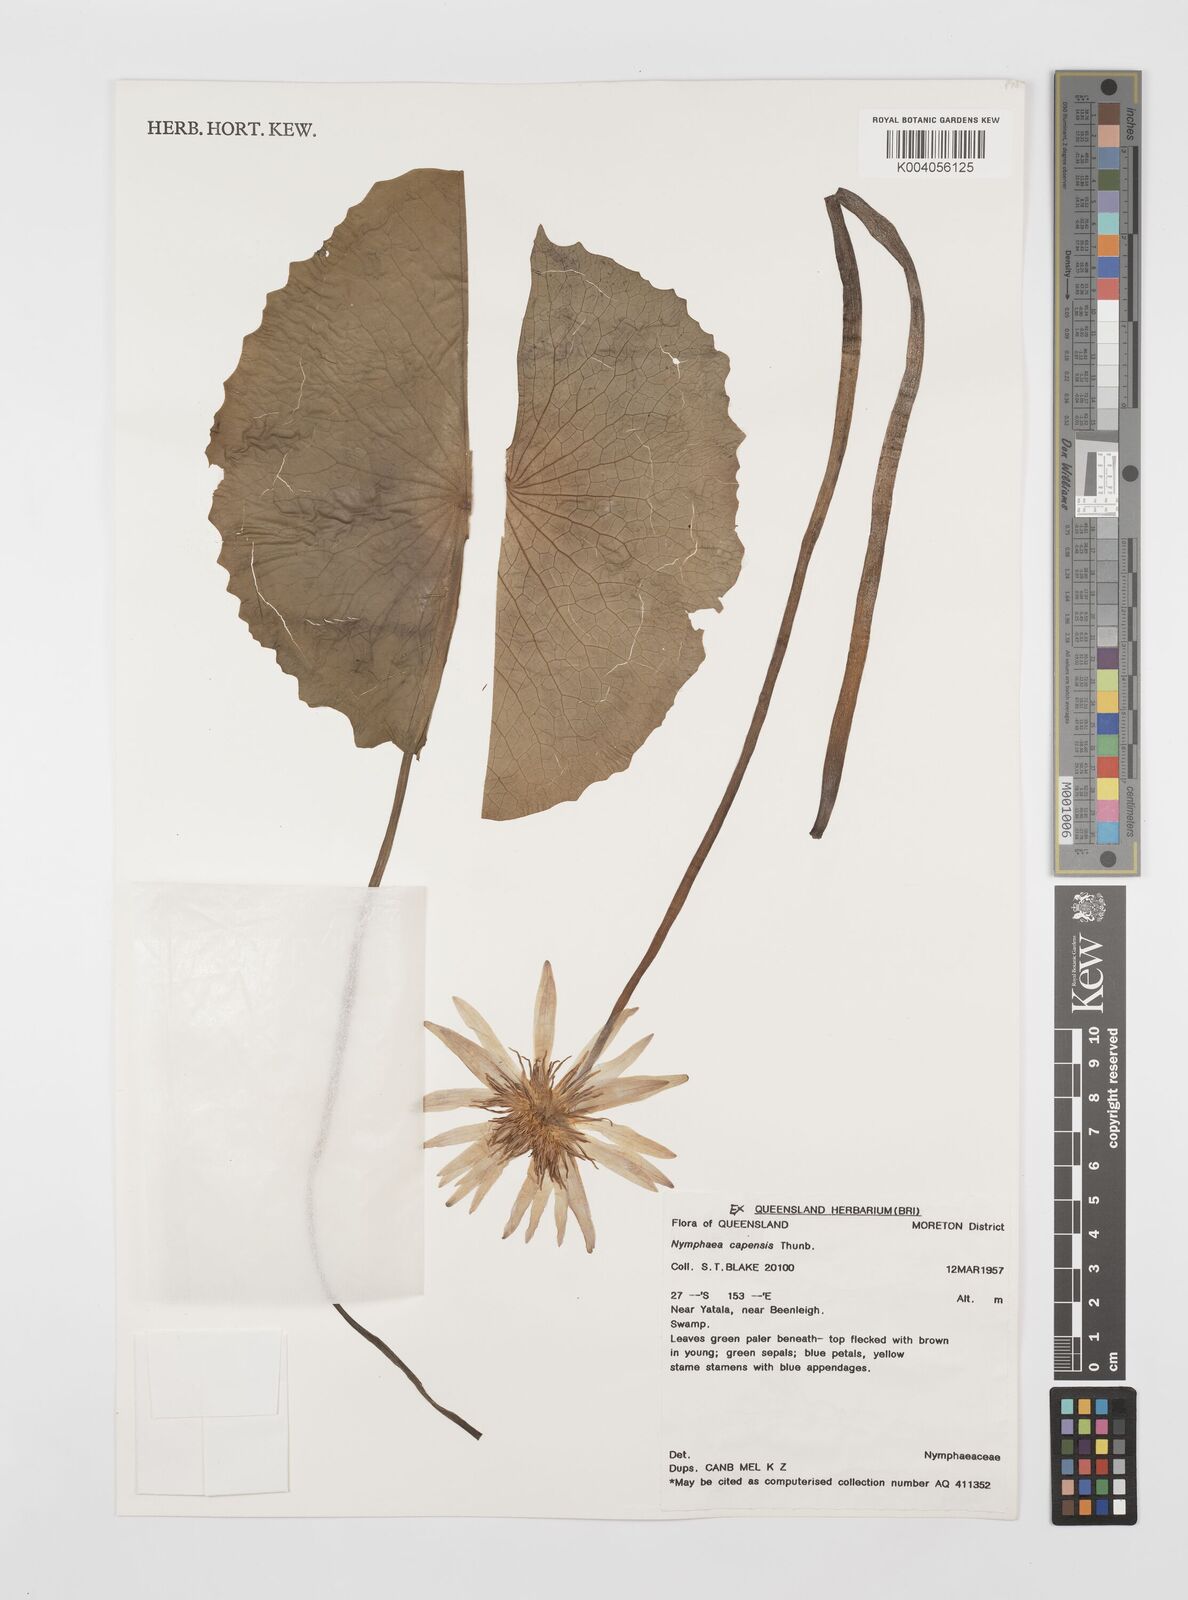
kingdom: Plantae
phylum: Tracheophyta
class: Magnoliopsida
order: Nymphaeales
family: Nymphaeaceae
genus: Nymphaea
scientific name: Nymphaea nouchali
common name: Blue lotus
